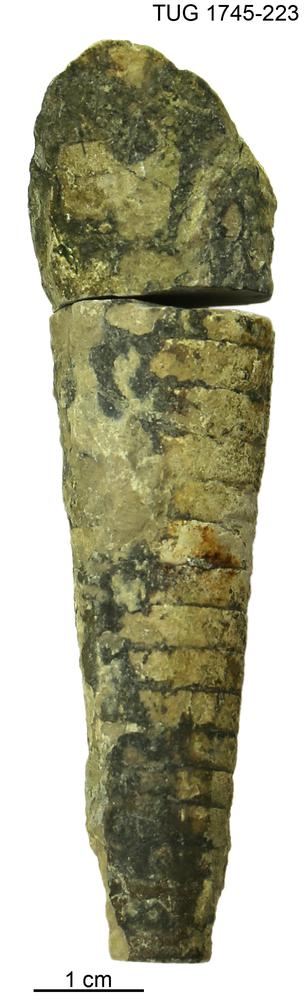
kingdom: Animalia
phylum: Mollusca
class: Cephalopoda
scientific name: Cephalopoda
